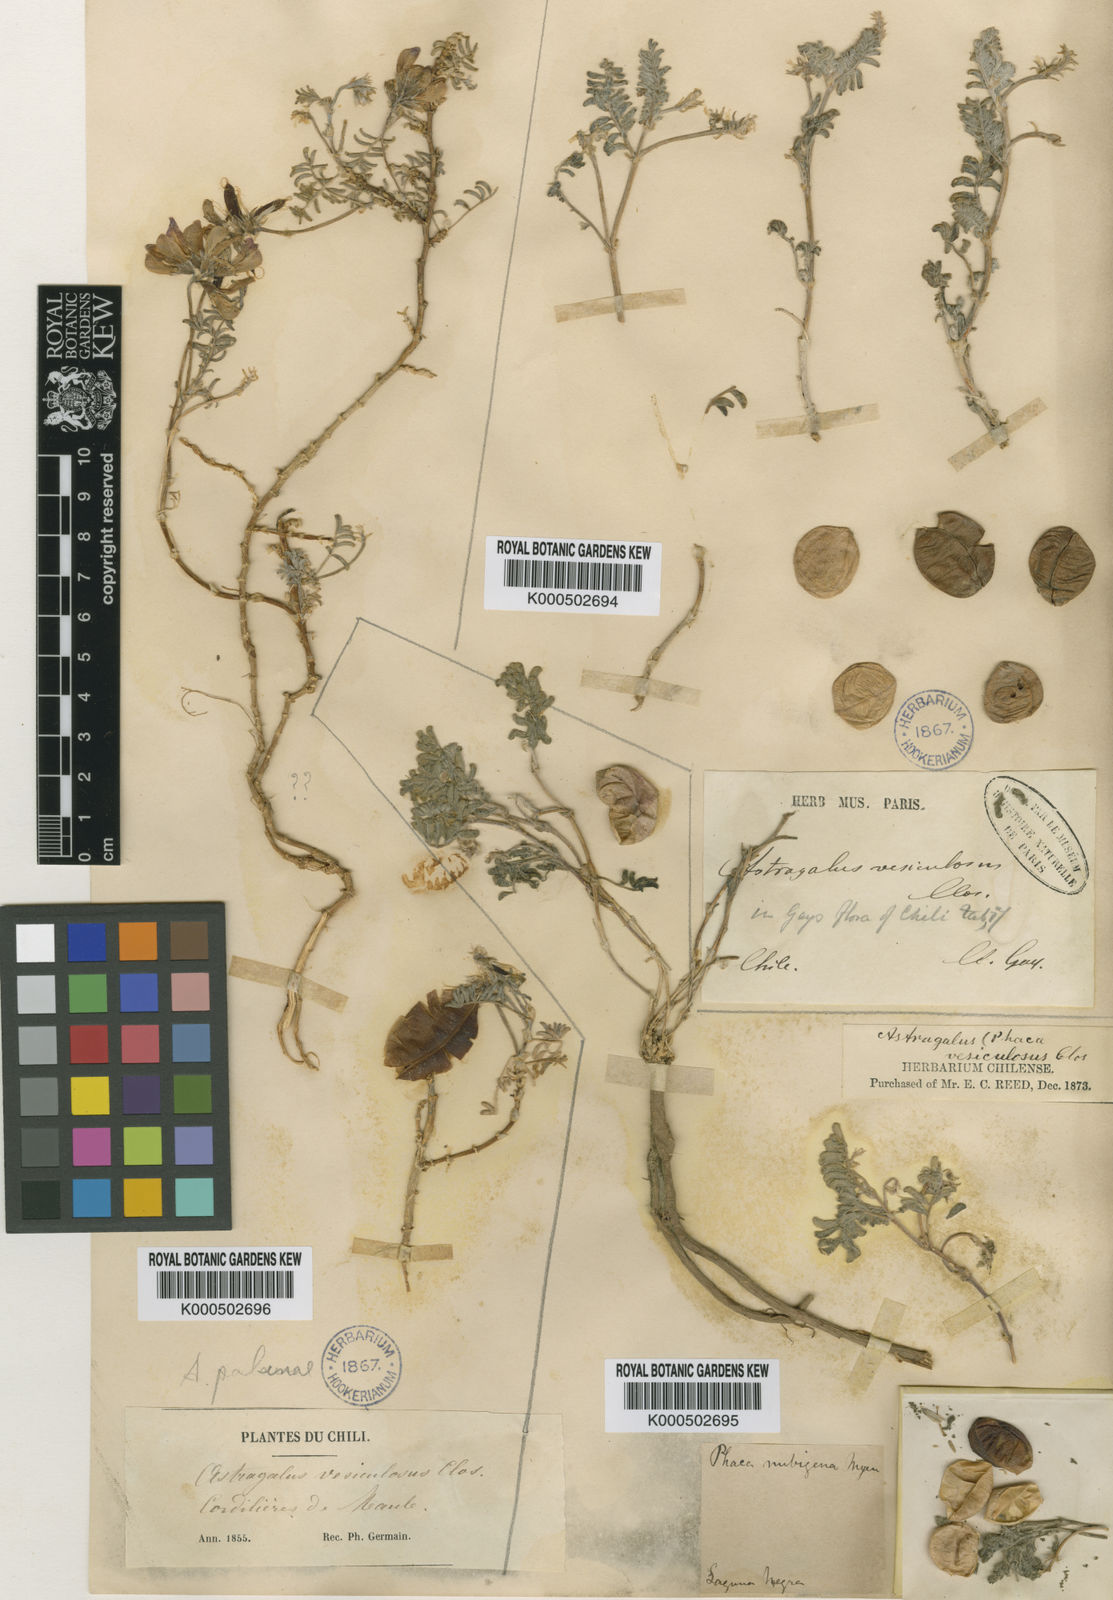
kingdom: Plantae
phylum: Tracheophyta
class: Magnoliopsida
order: Fabales
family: Fabaceae
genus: Astragalus
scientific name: Astragalus vesiculosus
